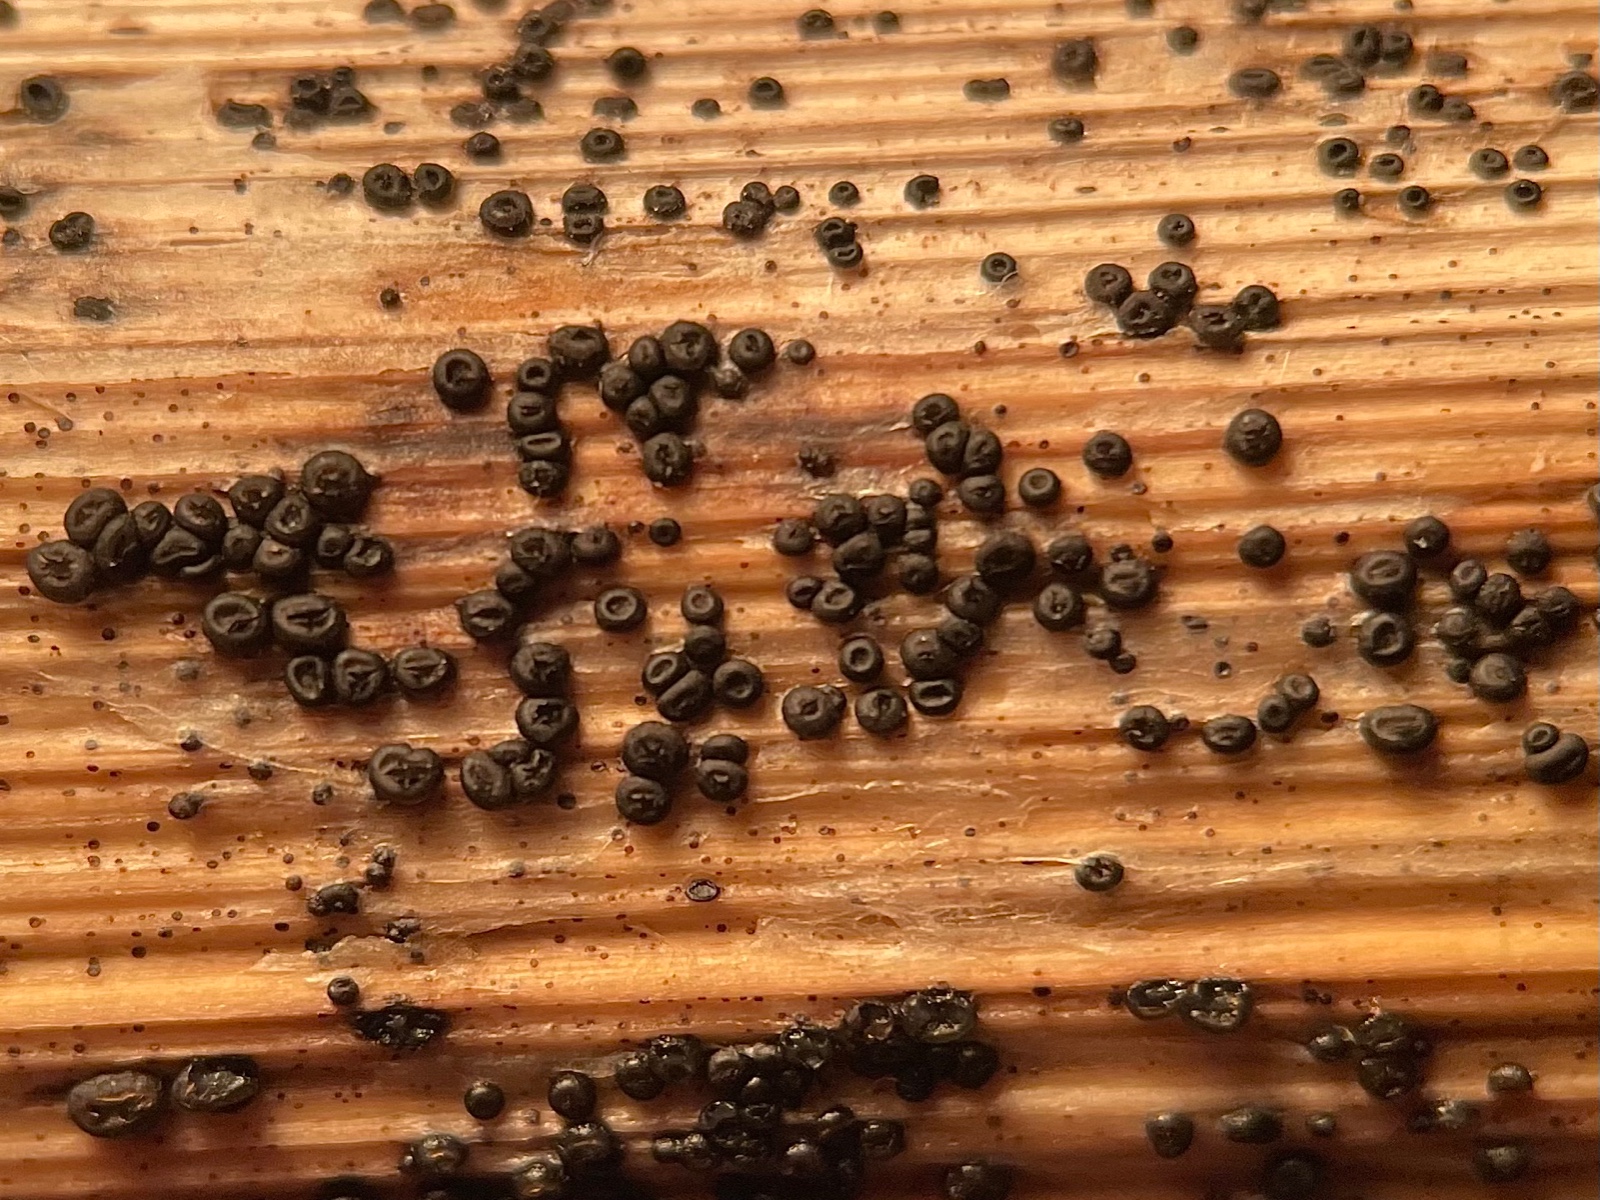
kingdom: Fungi
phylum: Ascomycota
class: Leotiomycetes
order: Helotiales
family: Heterosphaeriaceae
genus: Heterosphaeria
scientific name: Heterosphaeria
